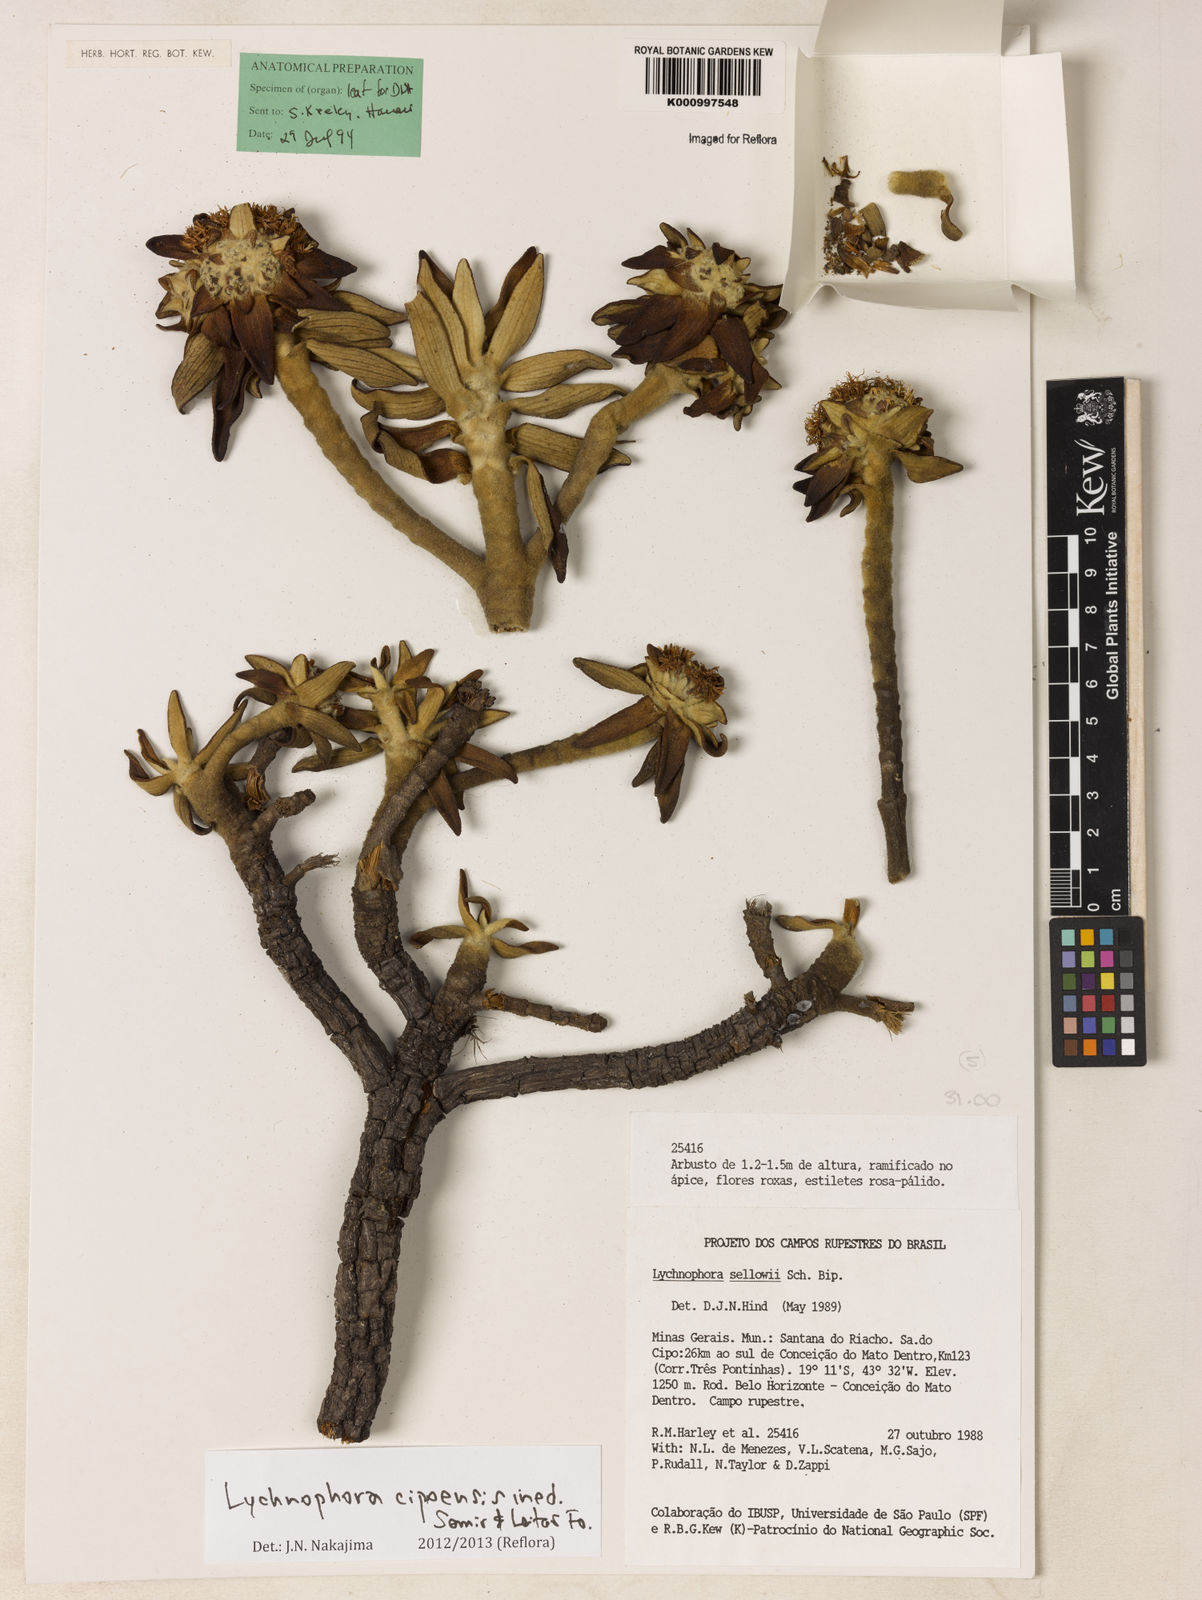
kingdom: Plantae
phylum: Tracheophyta
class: Magnoliopsida
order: Asterales
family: Asteraceae
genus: Lychnophora
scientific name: Lychnophora
